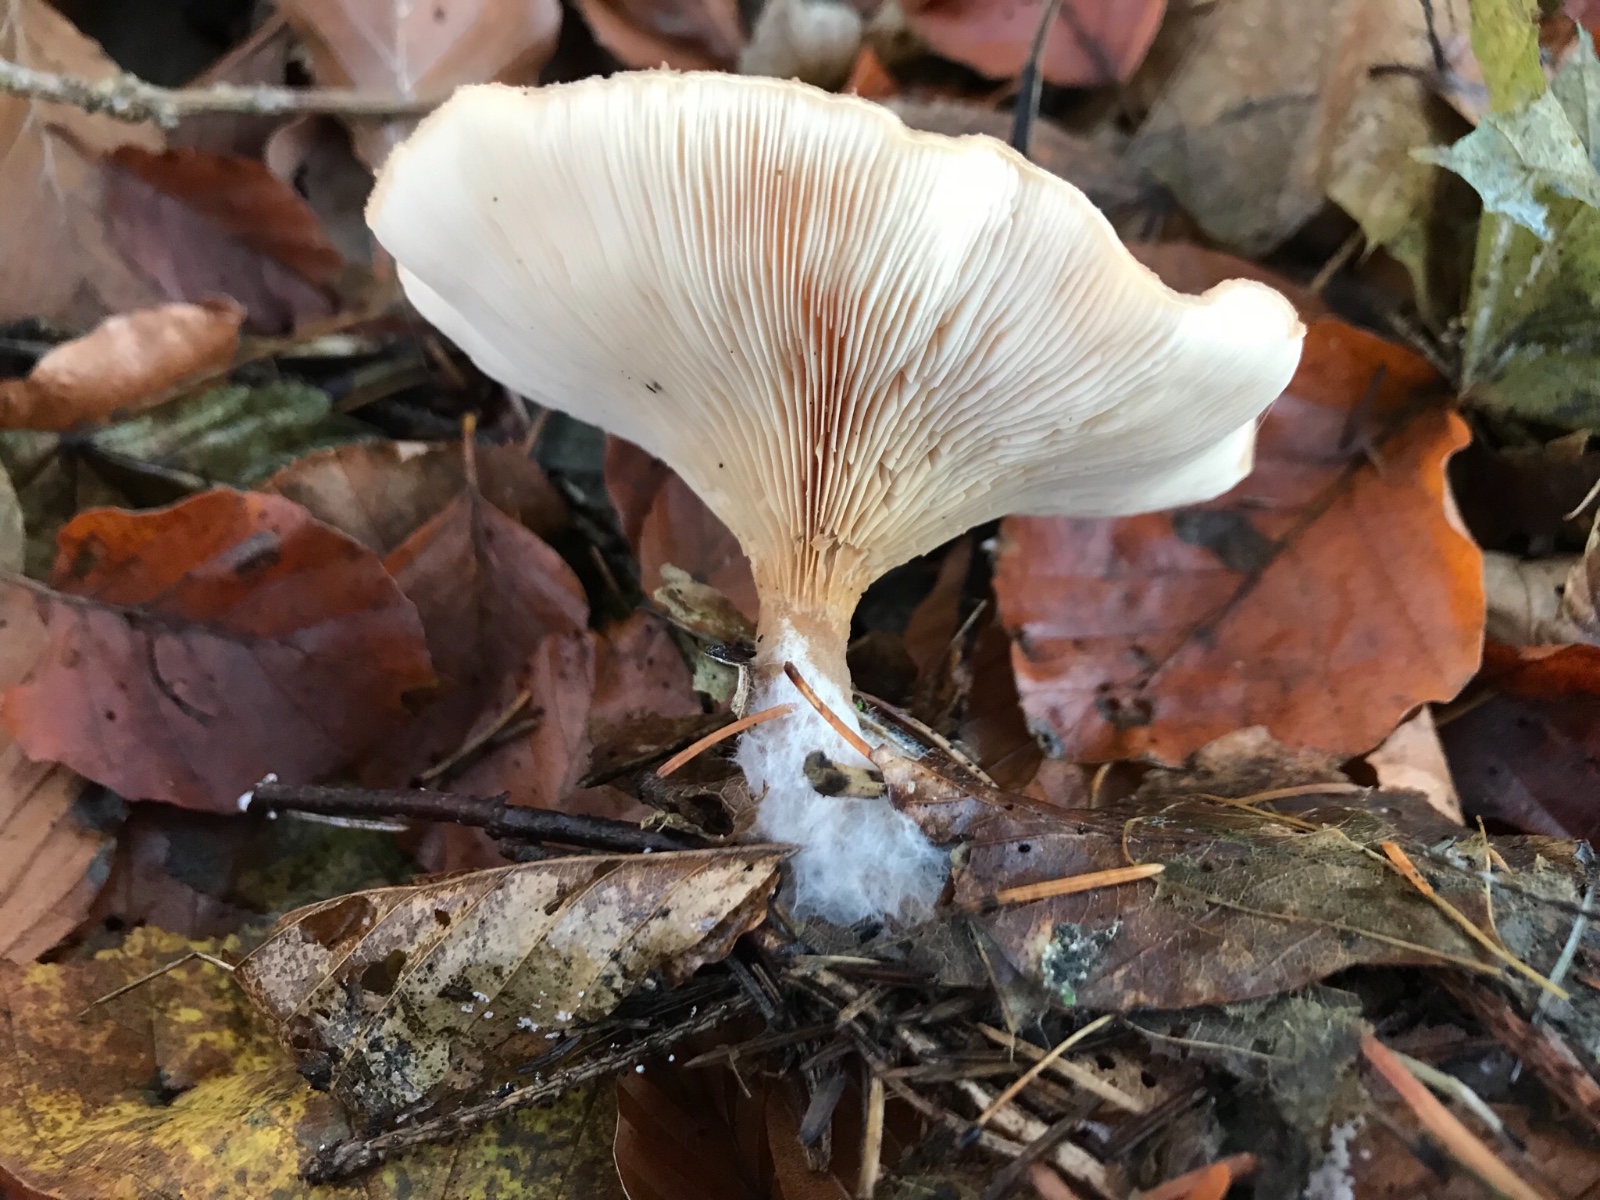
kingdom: Fungi
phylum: Basidiomycota
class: Agaricomycetes
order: Agaricales
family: Tricholomataceae
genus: Paralepista
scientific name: Paralepista flaccida
